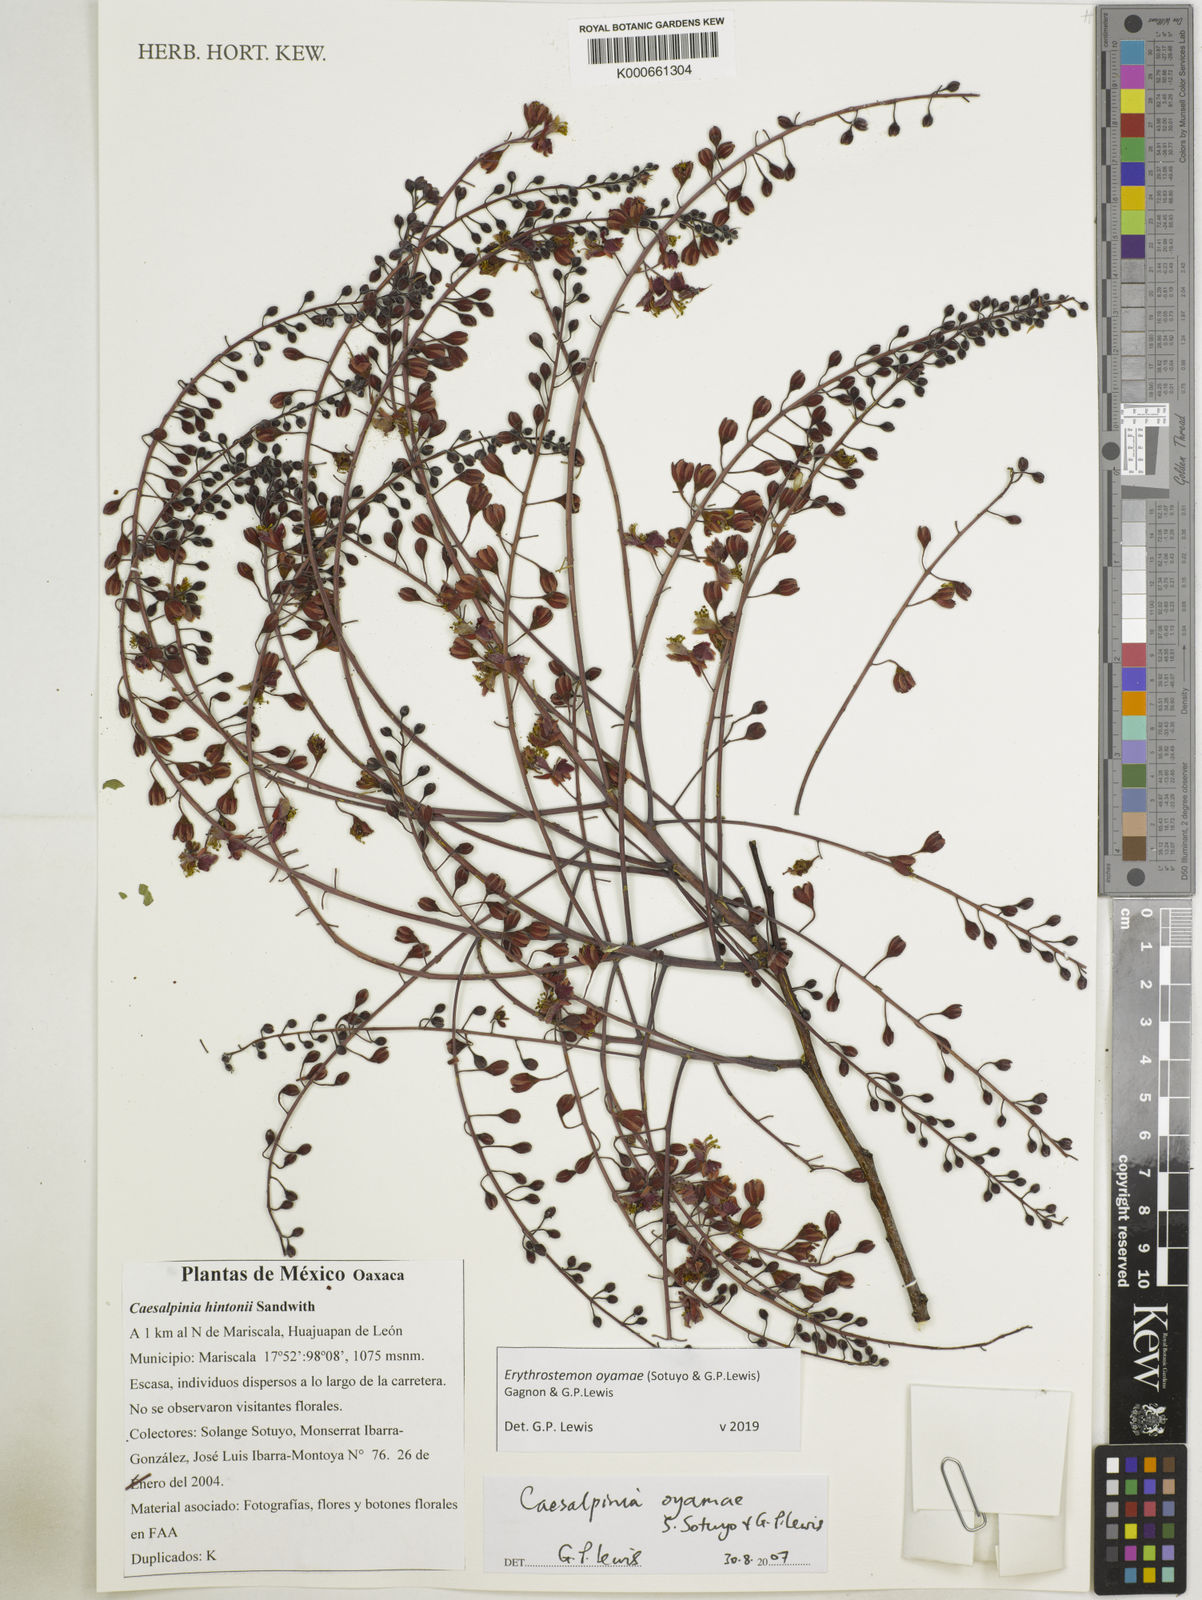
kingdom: Plantae
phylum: Tracheophyta
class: Magnoliopsida
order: Fabales
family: Fabaceae
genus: Erythrostemon
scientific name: Erythrostemon oyamae
